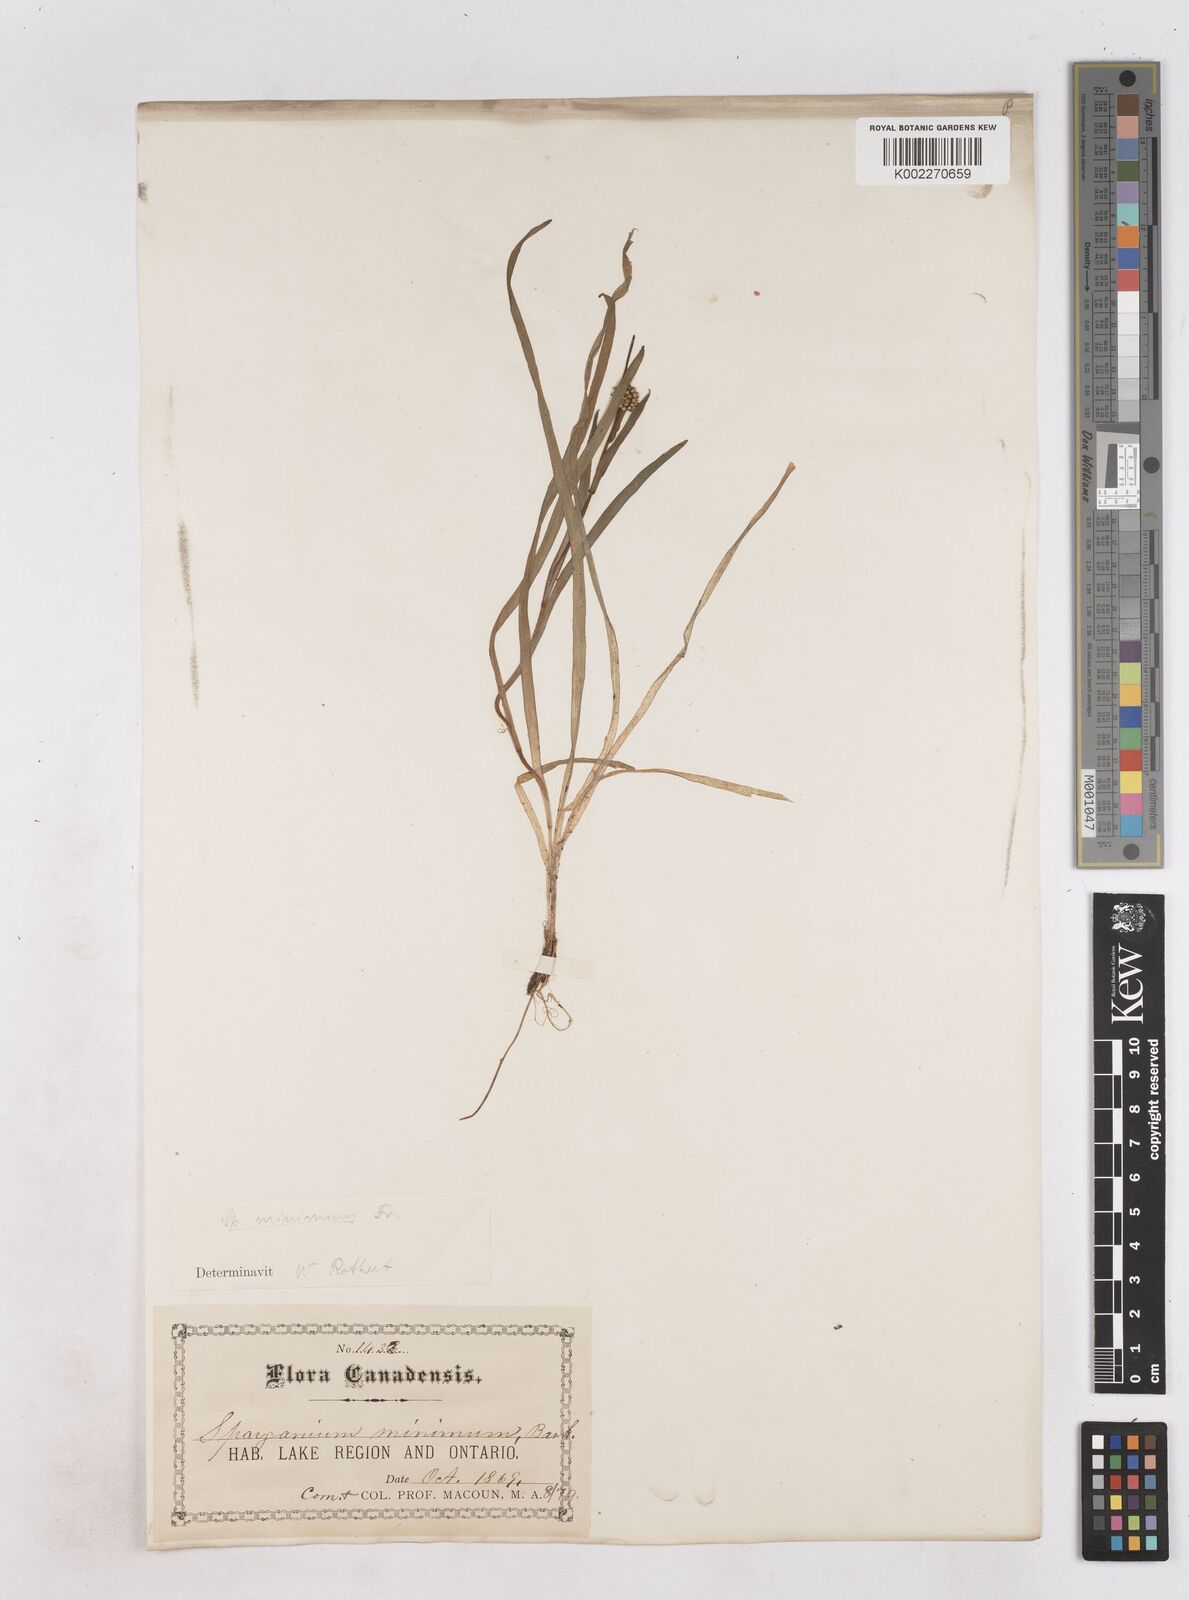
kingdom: Plantae
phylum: Tracheophyta
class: Liliopsida
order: Poales
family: Typhaceae
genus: Sparganium
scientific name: Sparganium natans
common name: Least bur-reed
